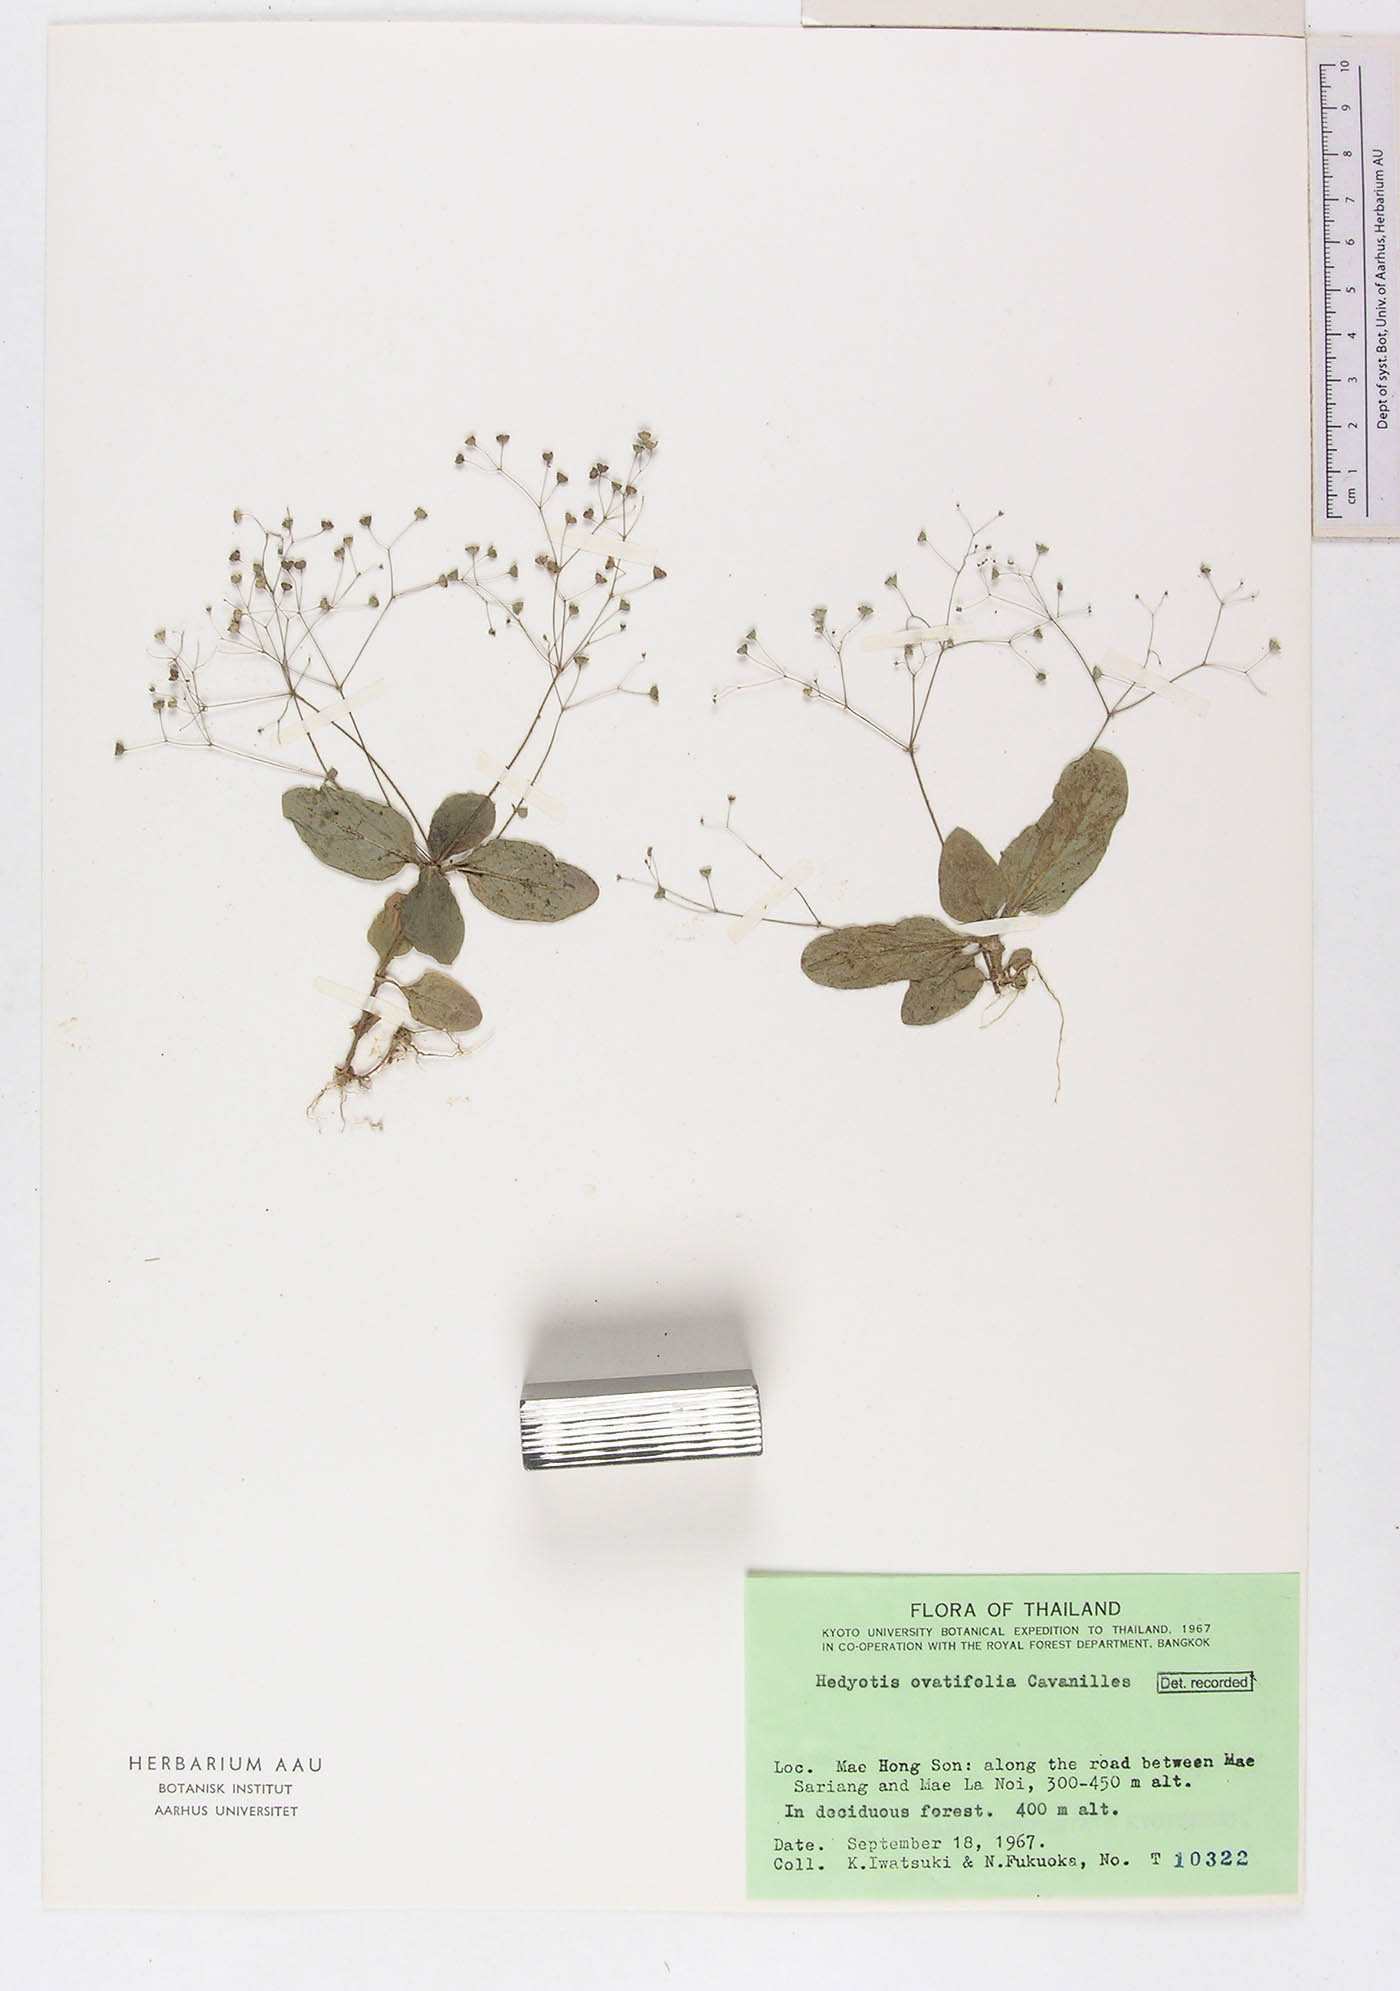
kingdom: Plantae
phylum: Tracheophyta
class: Magnoliopsida
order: Gentianales
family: Rubiaceae
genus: Debia
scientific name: Debia ovatifolia
